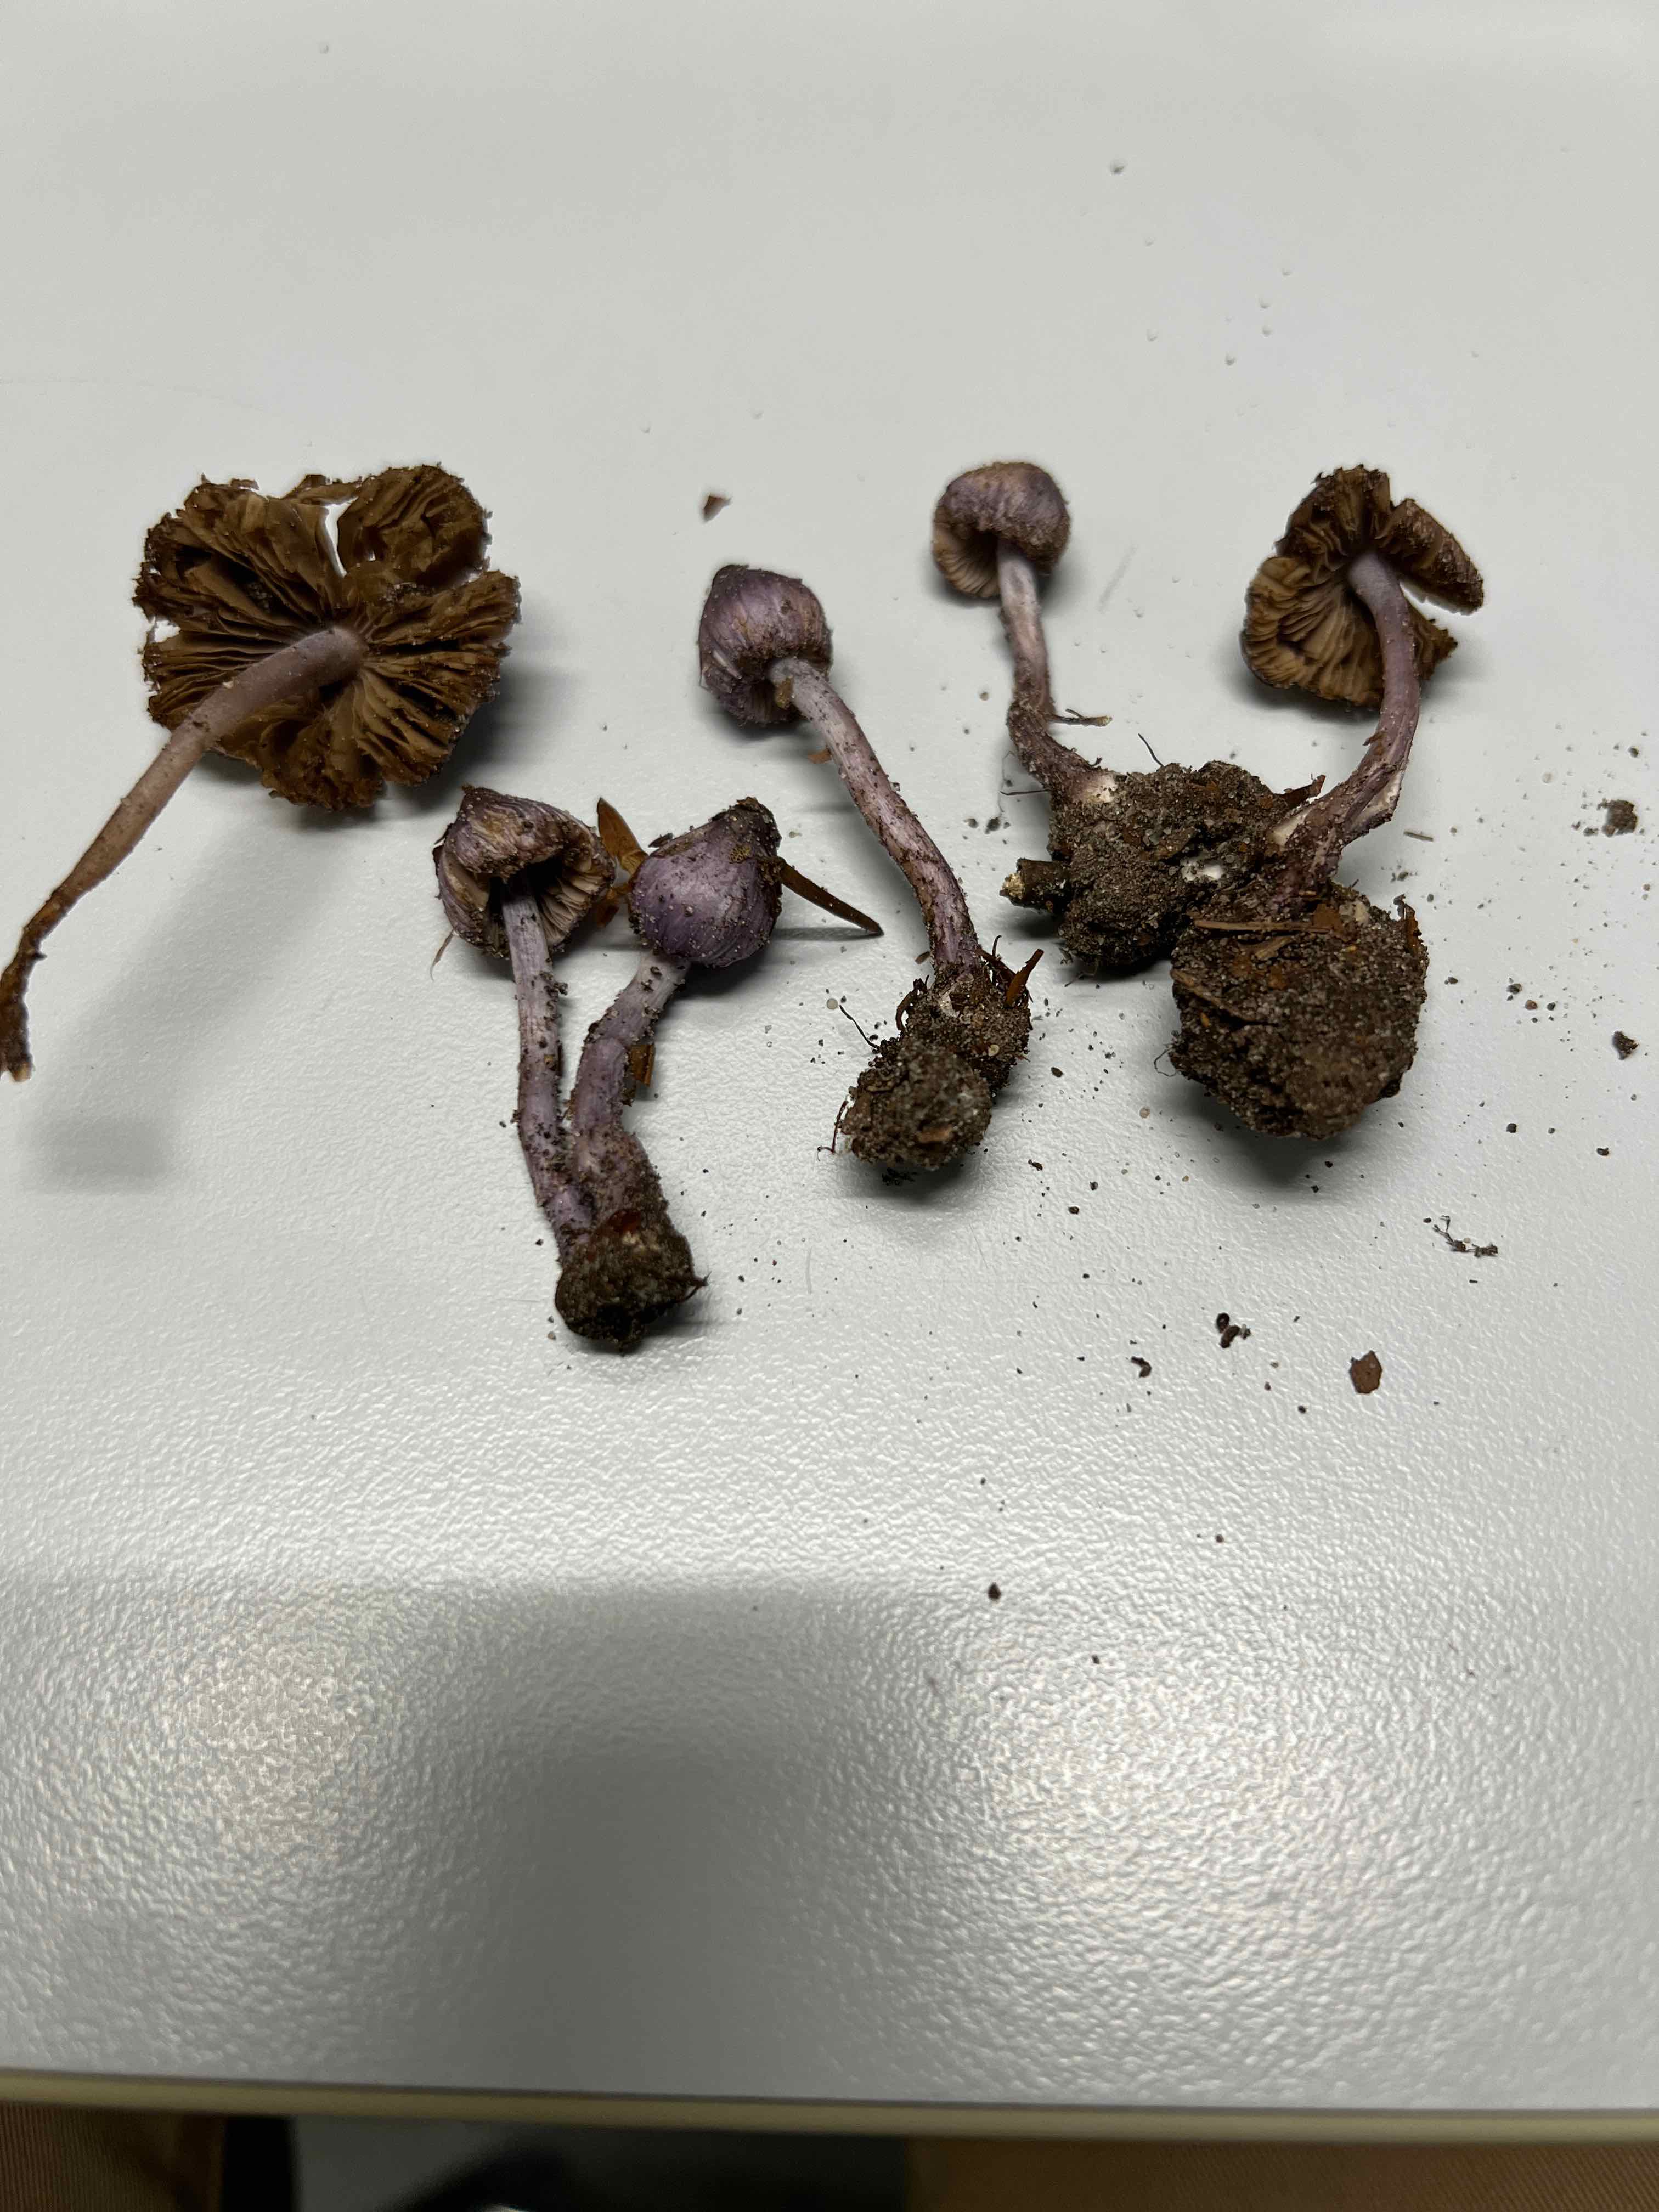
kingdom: Fungi
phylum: Basidiomycota
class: Agaricomycetes
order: Agaricales
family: Inocybaceae
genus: Inocybe
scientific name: Inocybe geophylla
